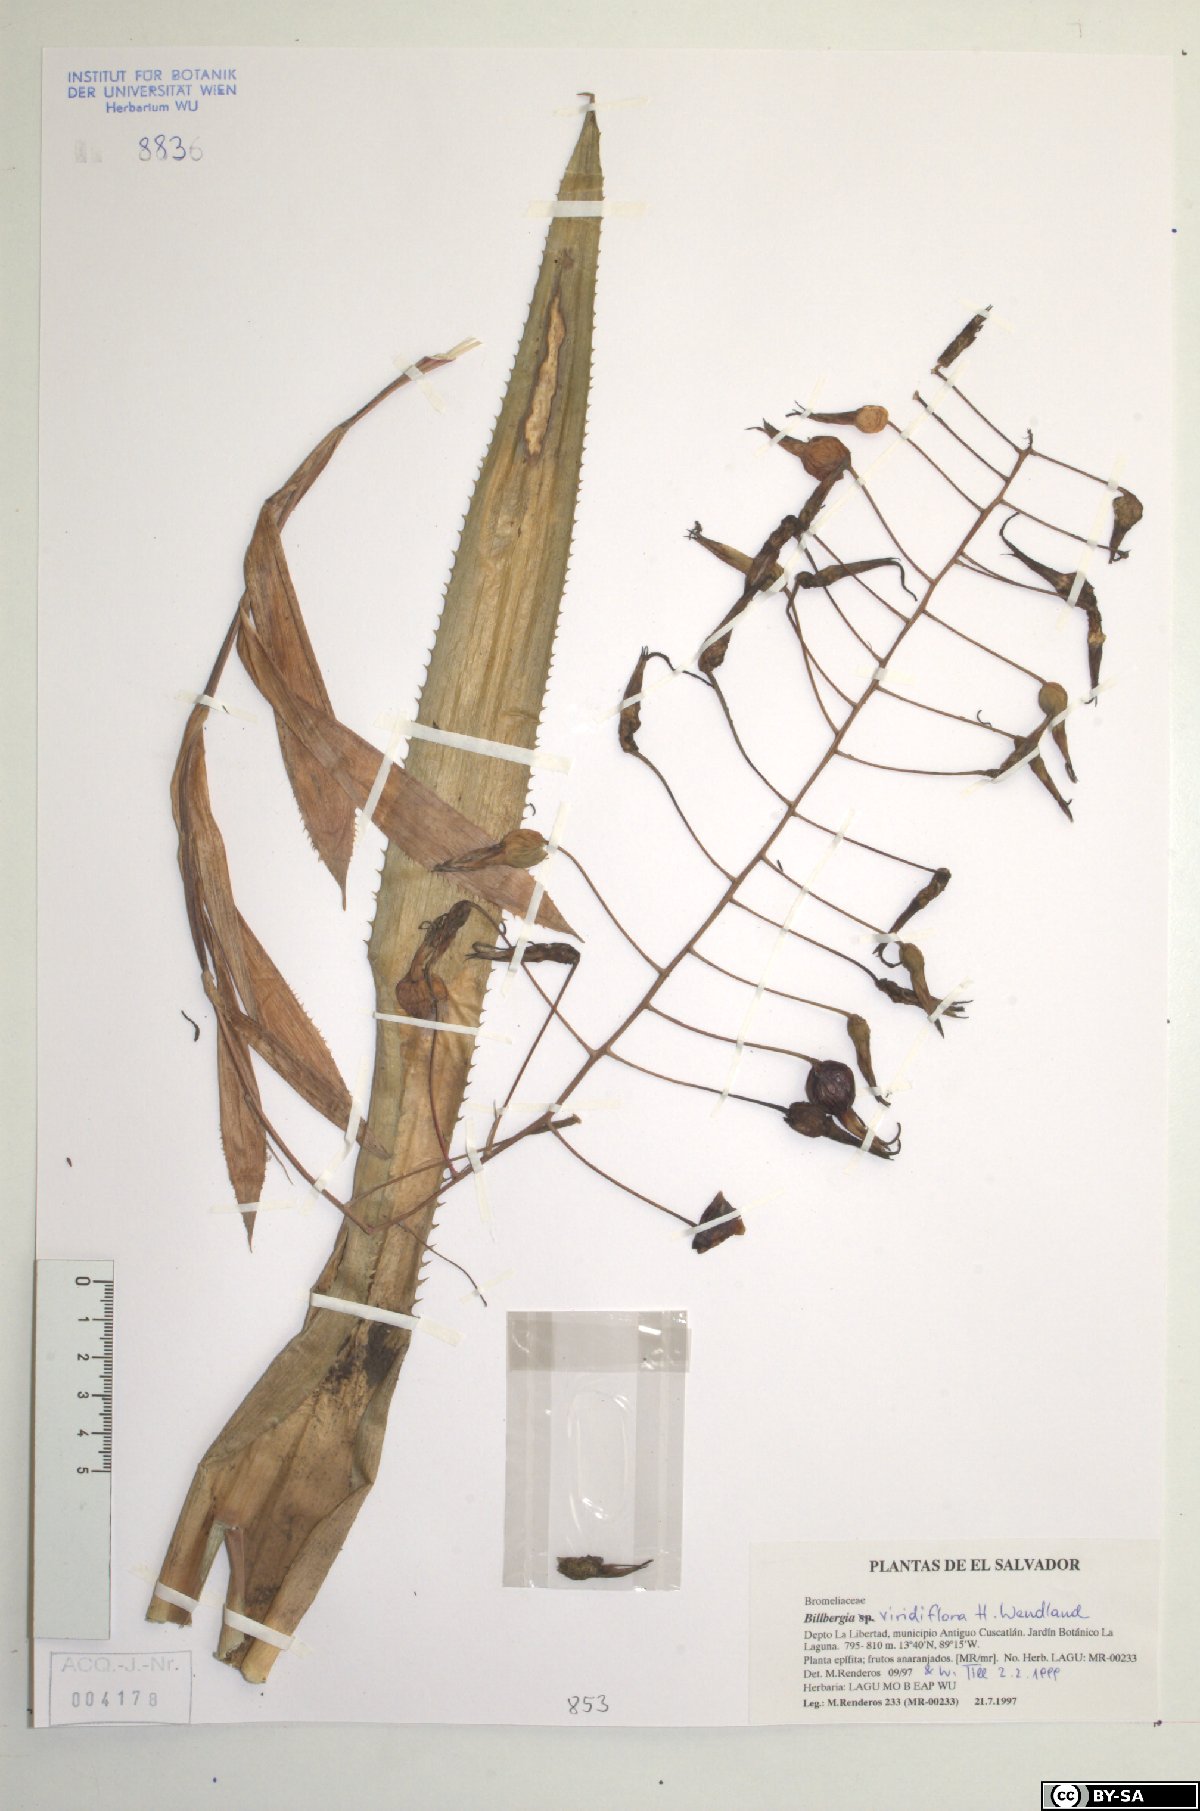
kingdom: Plantae
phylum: Tracheophyta
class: Liliopsida
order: Poales
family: Bromeliaceae
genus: Billbergia
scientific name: Billbergia viridiflora
